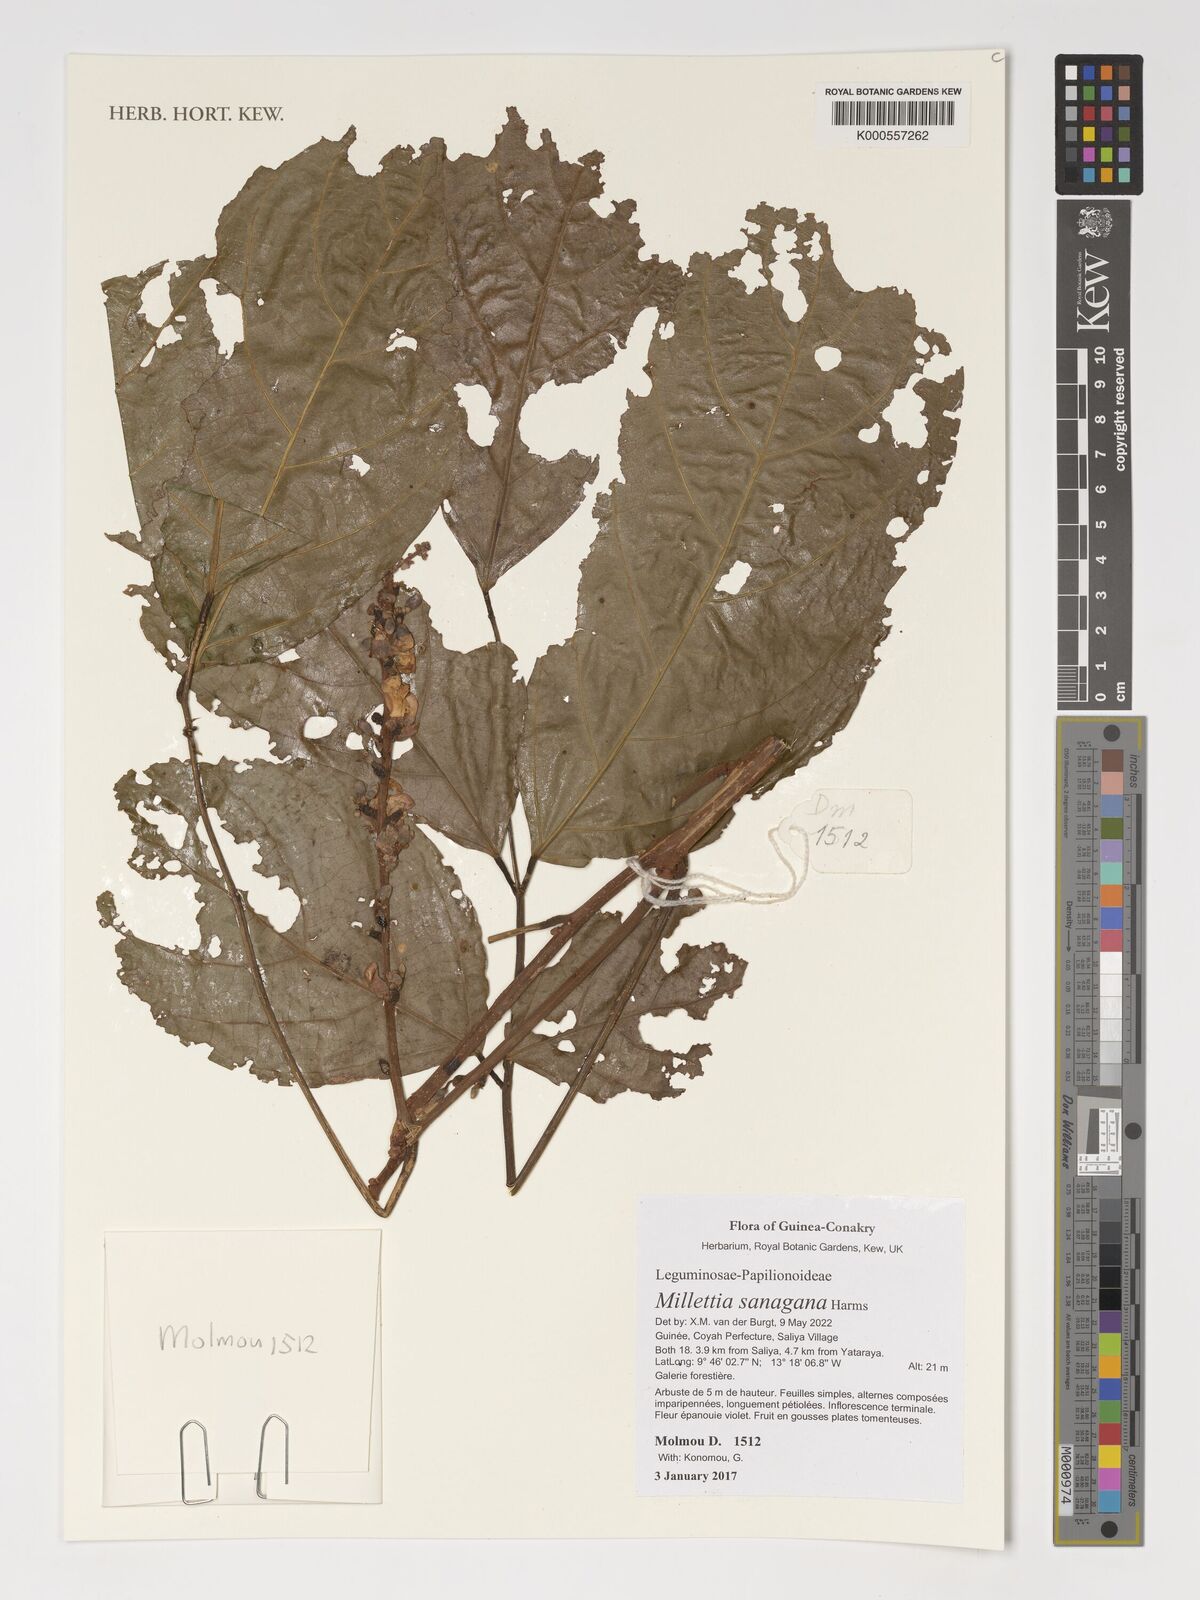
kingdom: Plantae
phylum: Tracheophyta
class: Magnoliopsida
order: Fabales
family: Fabaceae
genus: Millettia
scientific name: Millettia sanagana
